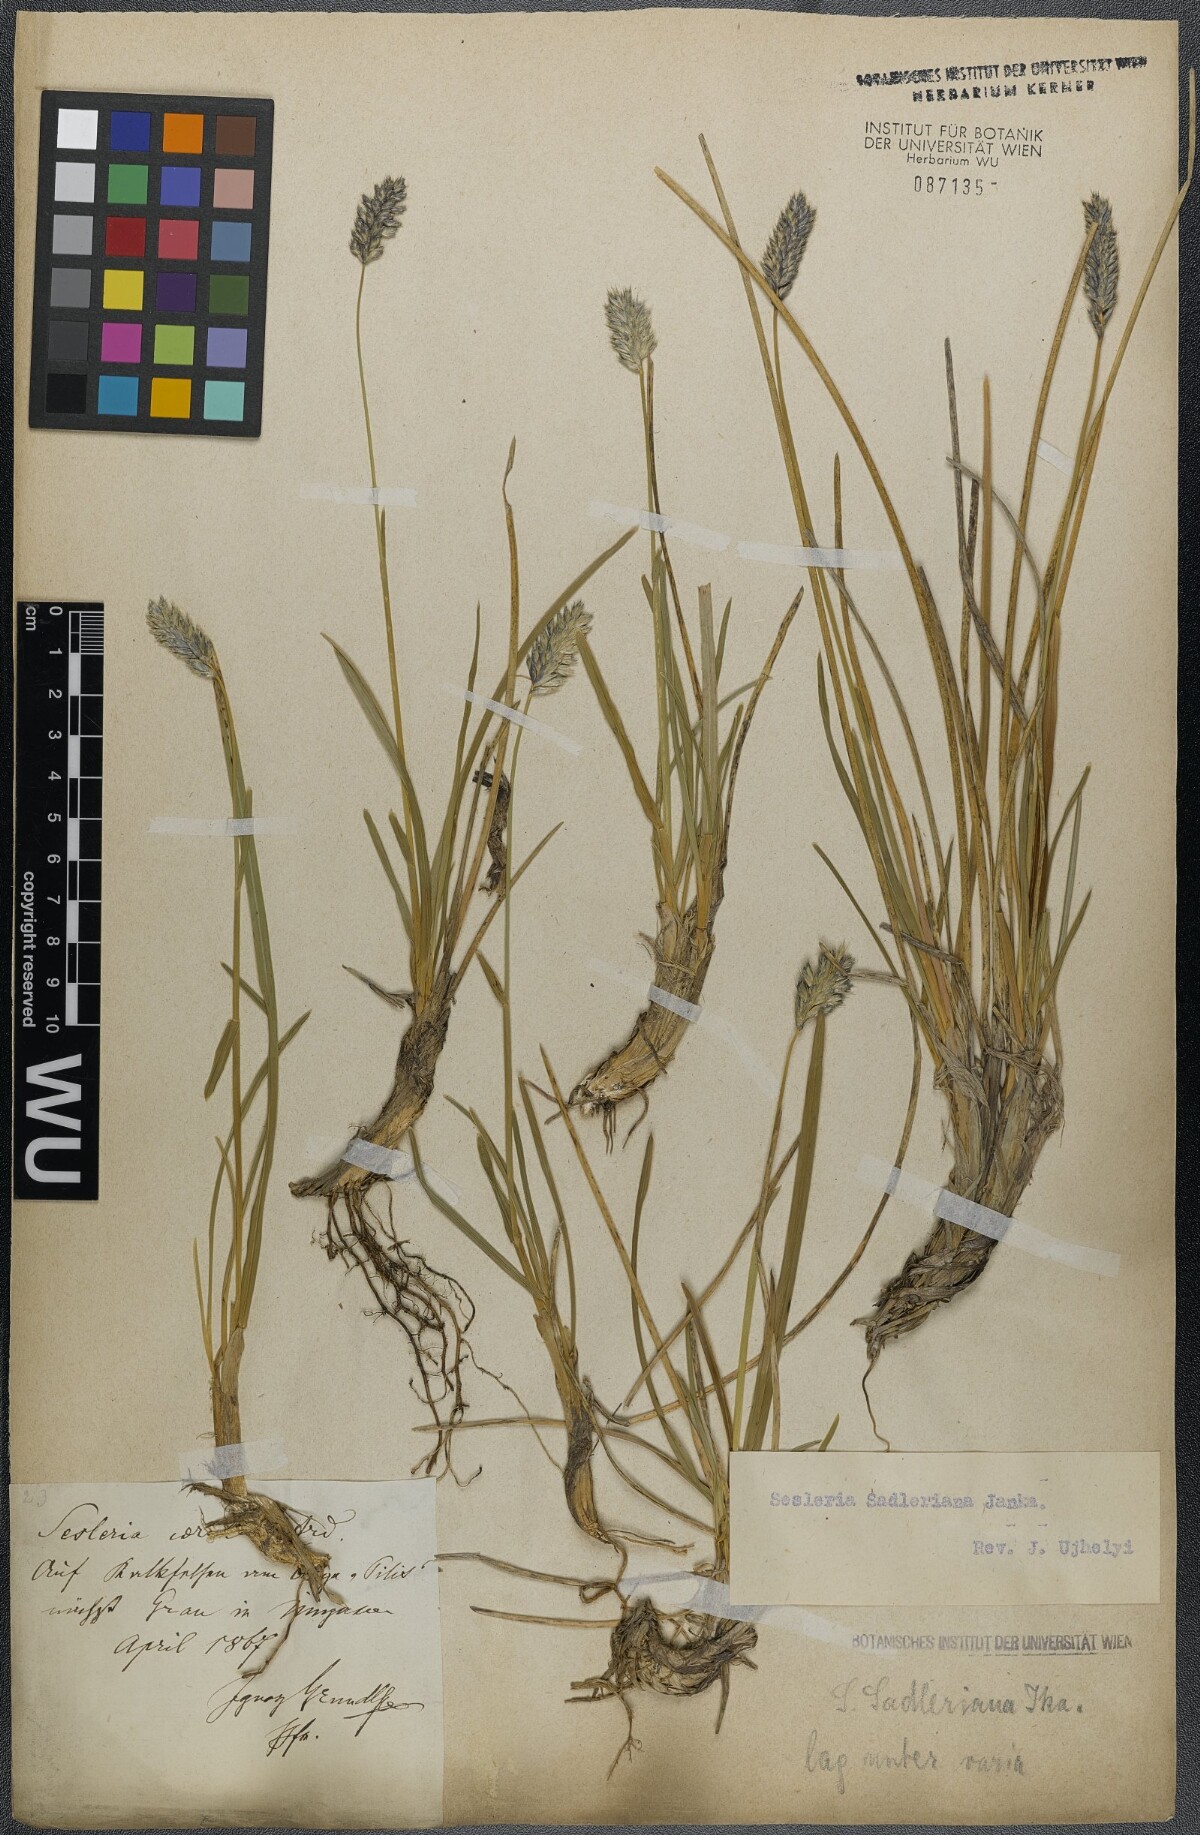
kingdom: Plantae
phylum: Tracheophyta
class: Liliopsida
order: Poales
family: Poaceae
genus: Sesleria
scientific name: Sesleria sadleriana
